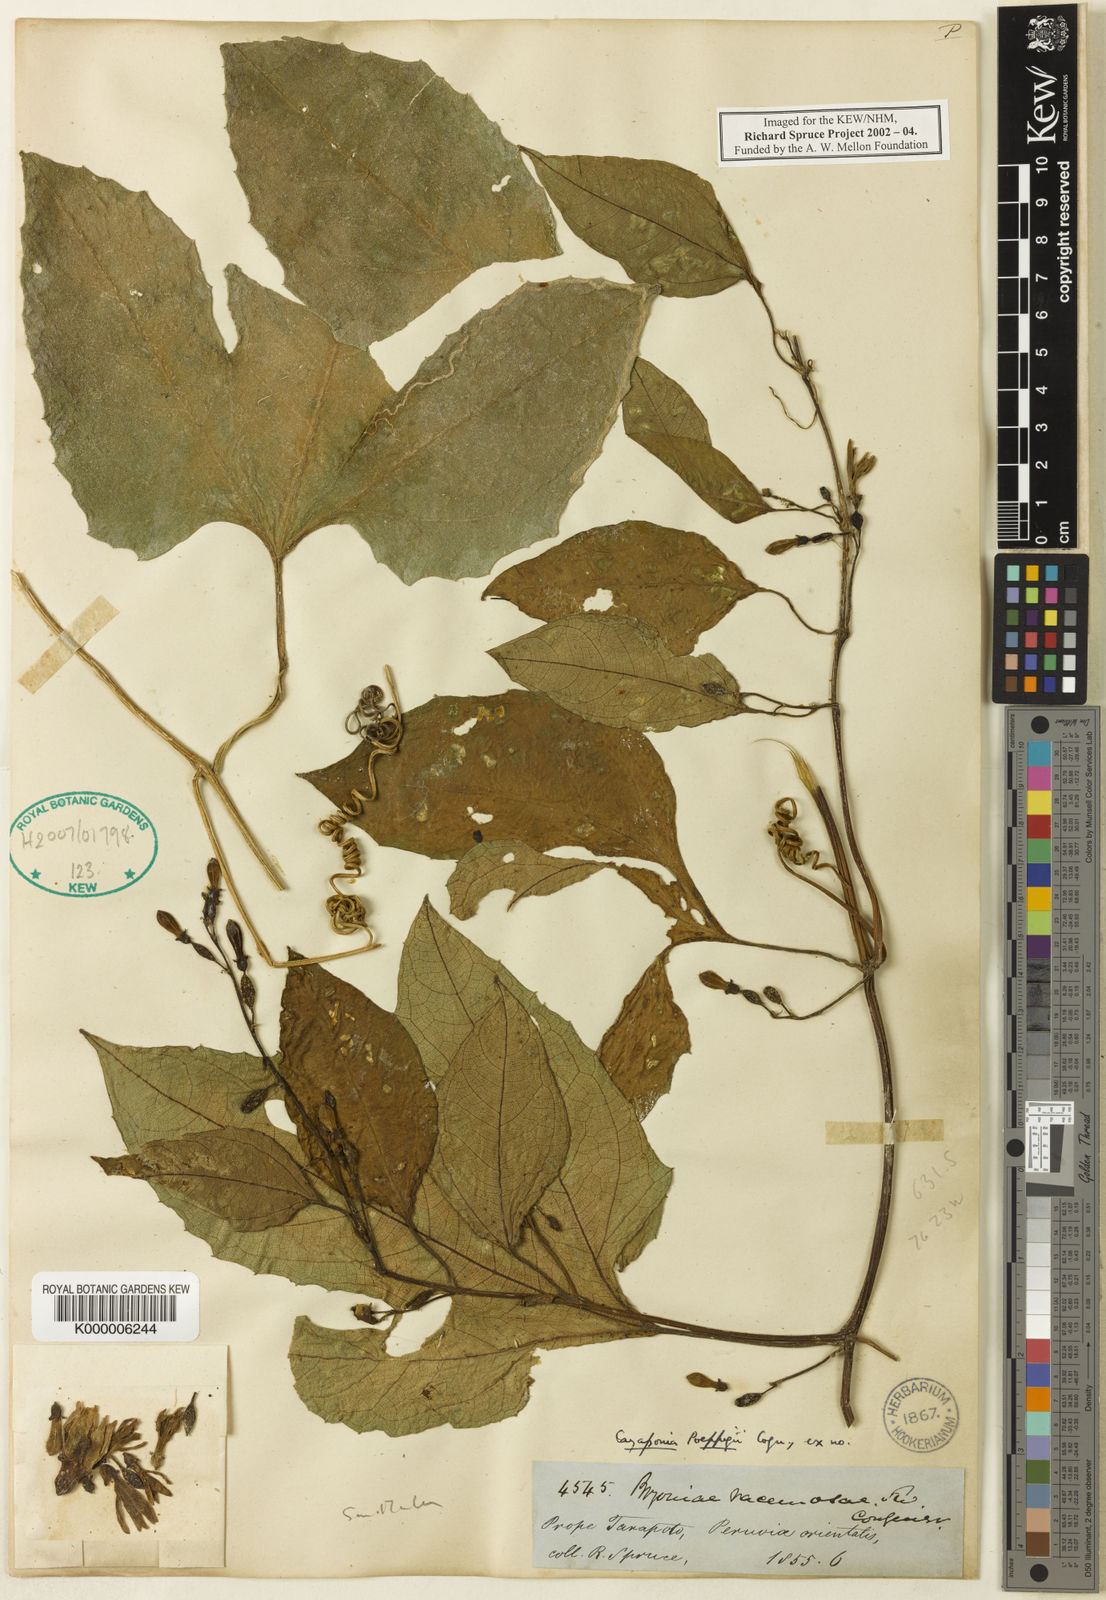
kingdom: Plantae
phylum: Tracheophyta
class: Magnoliopsida
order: Cucurbitales
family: Cucurbitaceae
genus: Cayaponia
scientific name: Cayaponia glandulosa
